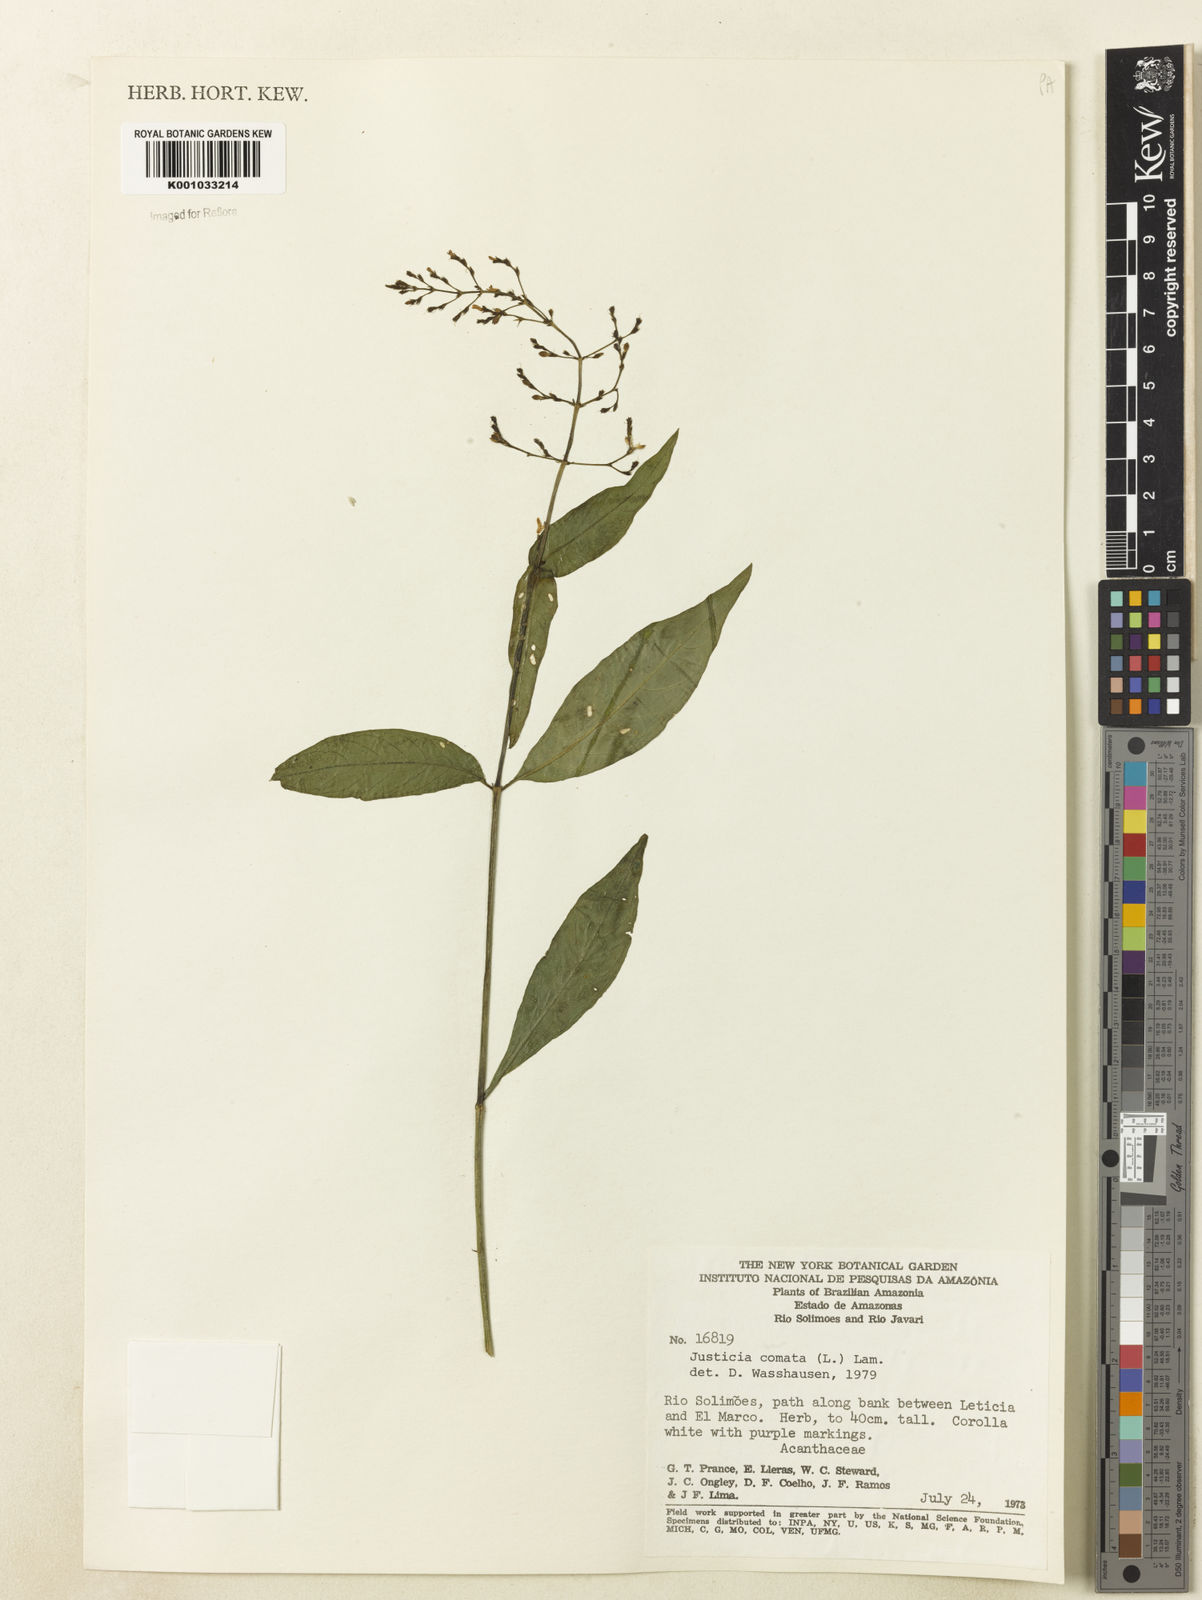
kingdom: Plantae
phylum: Tracheophyta
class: Magnoliopsida
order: Lamiales
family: Acanthaceae
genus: Dianthera
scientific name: Dianthera comata
